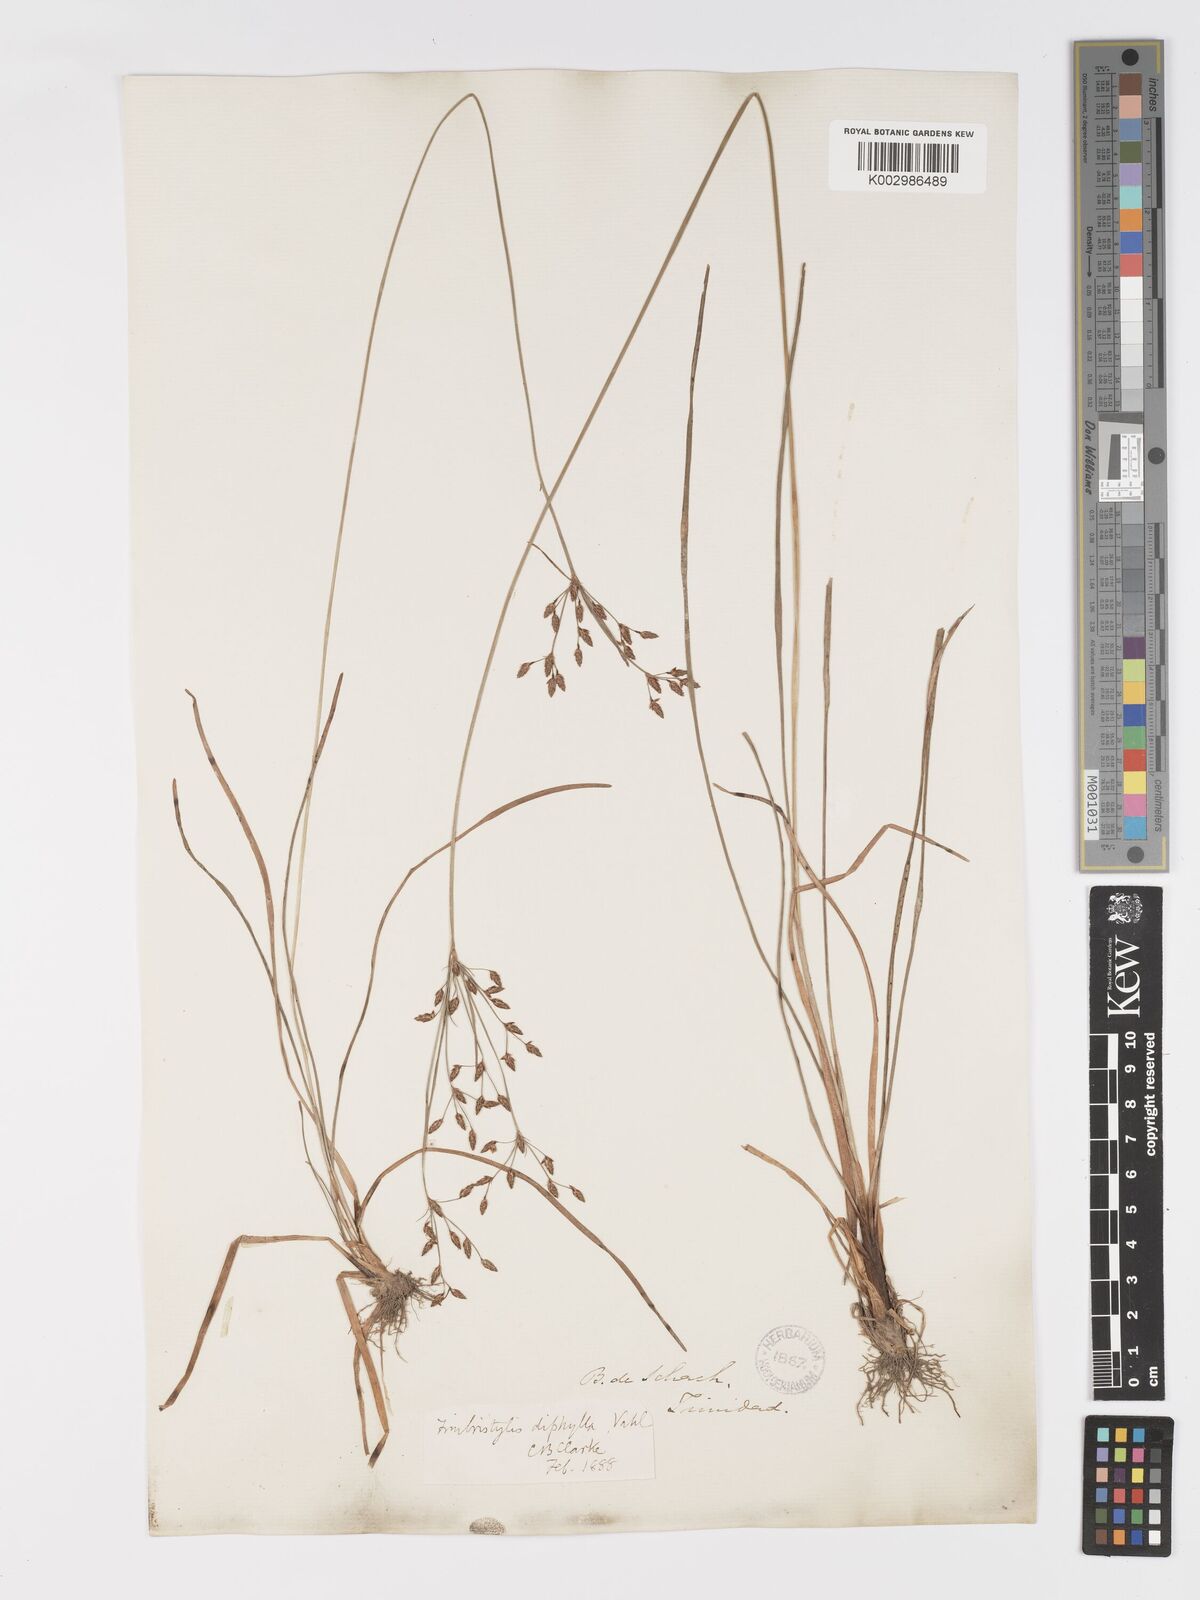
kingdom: Plantae
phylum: Tracheophyta
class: Liliopsida
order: Poales
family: Cyperaceae
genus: Fimbristylis
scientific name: Fimbristylis dichotoma
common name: Forked fimbry
